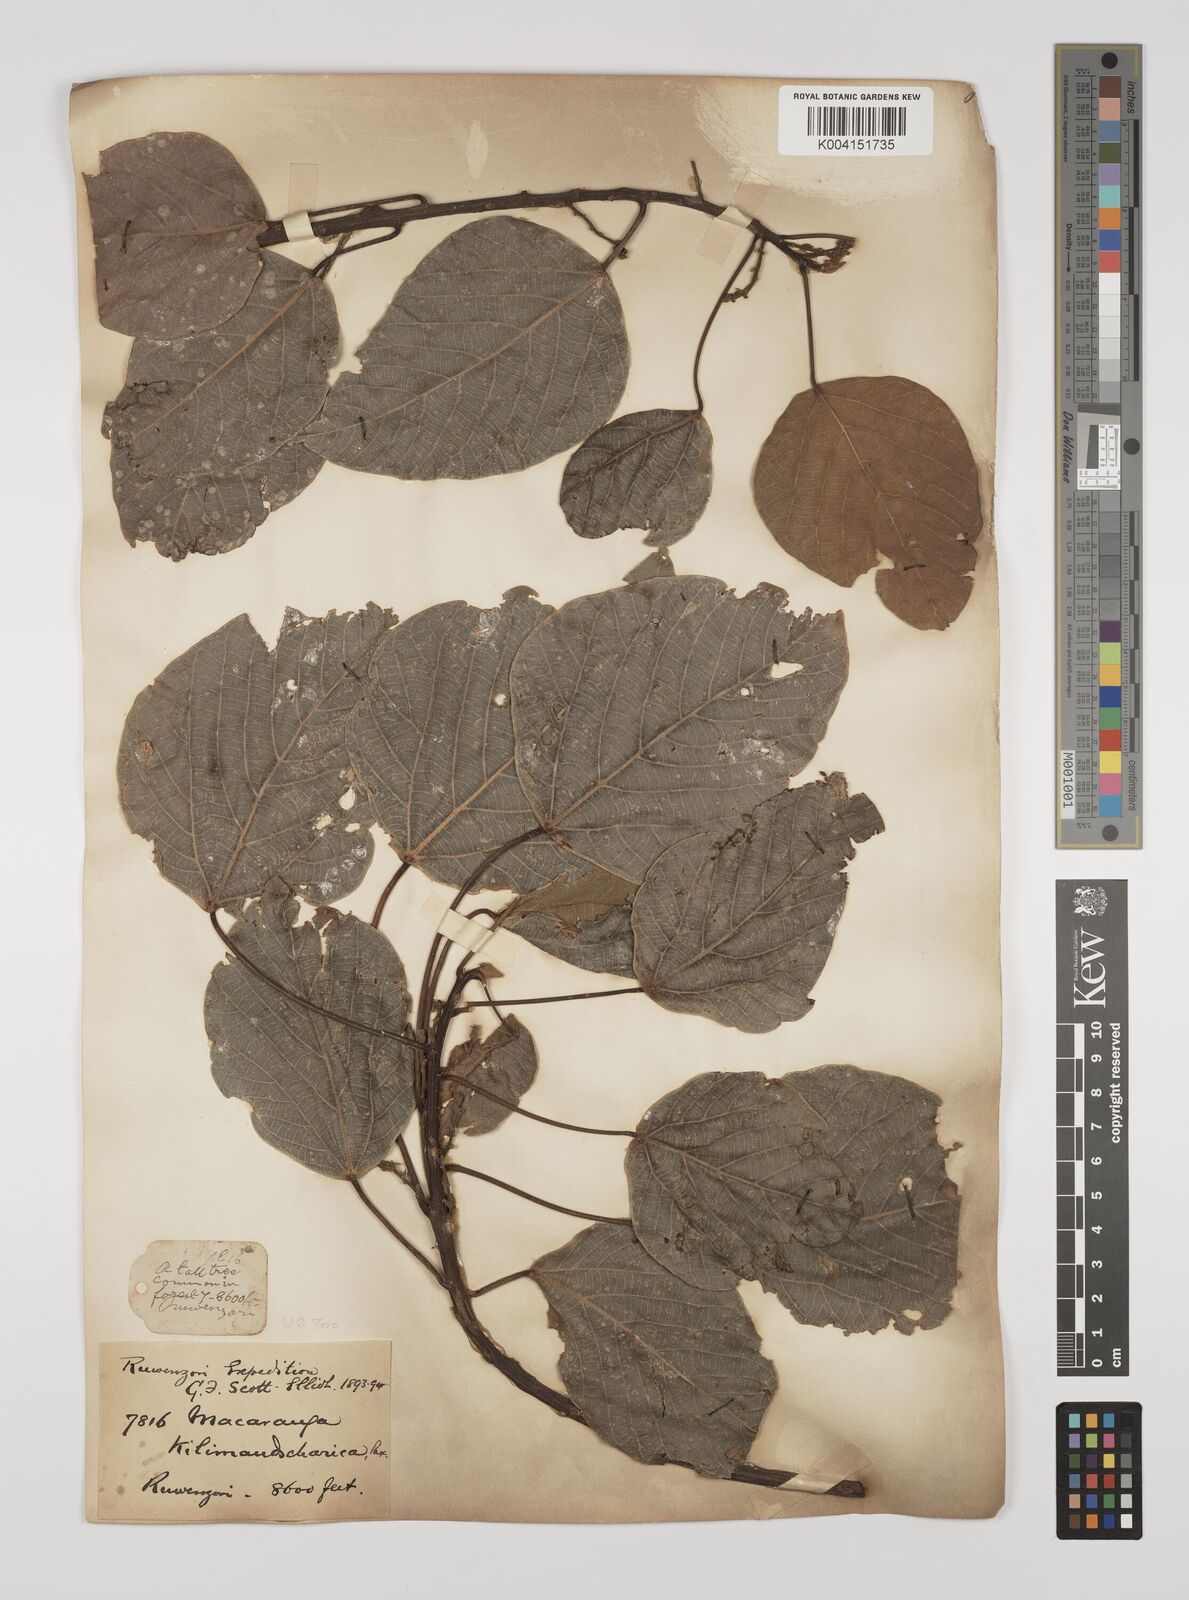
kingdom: Plantae
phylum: Tracheophyta
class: Magnoliopsida
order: Malpighiales
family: Euphorbiaceae
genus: Macaranga
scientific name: Macaranga
